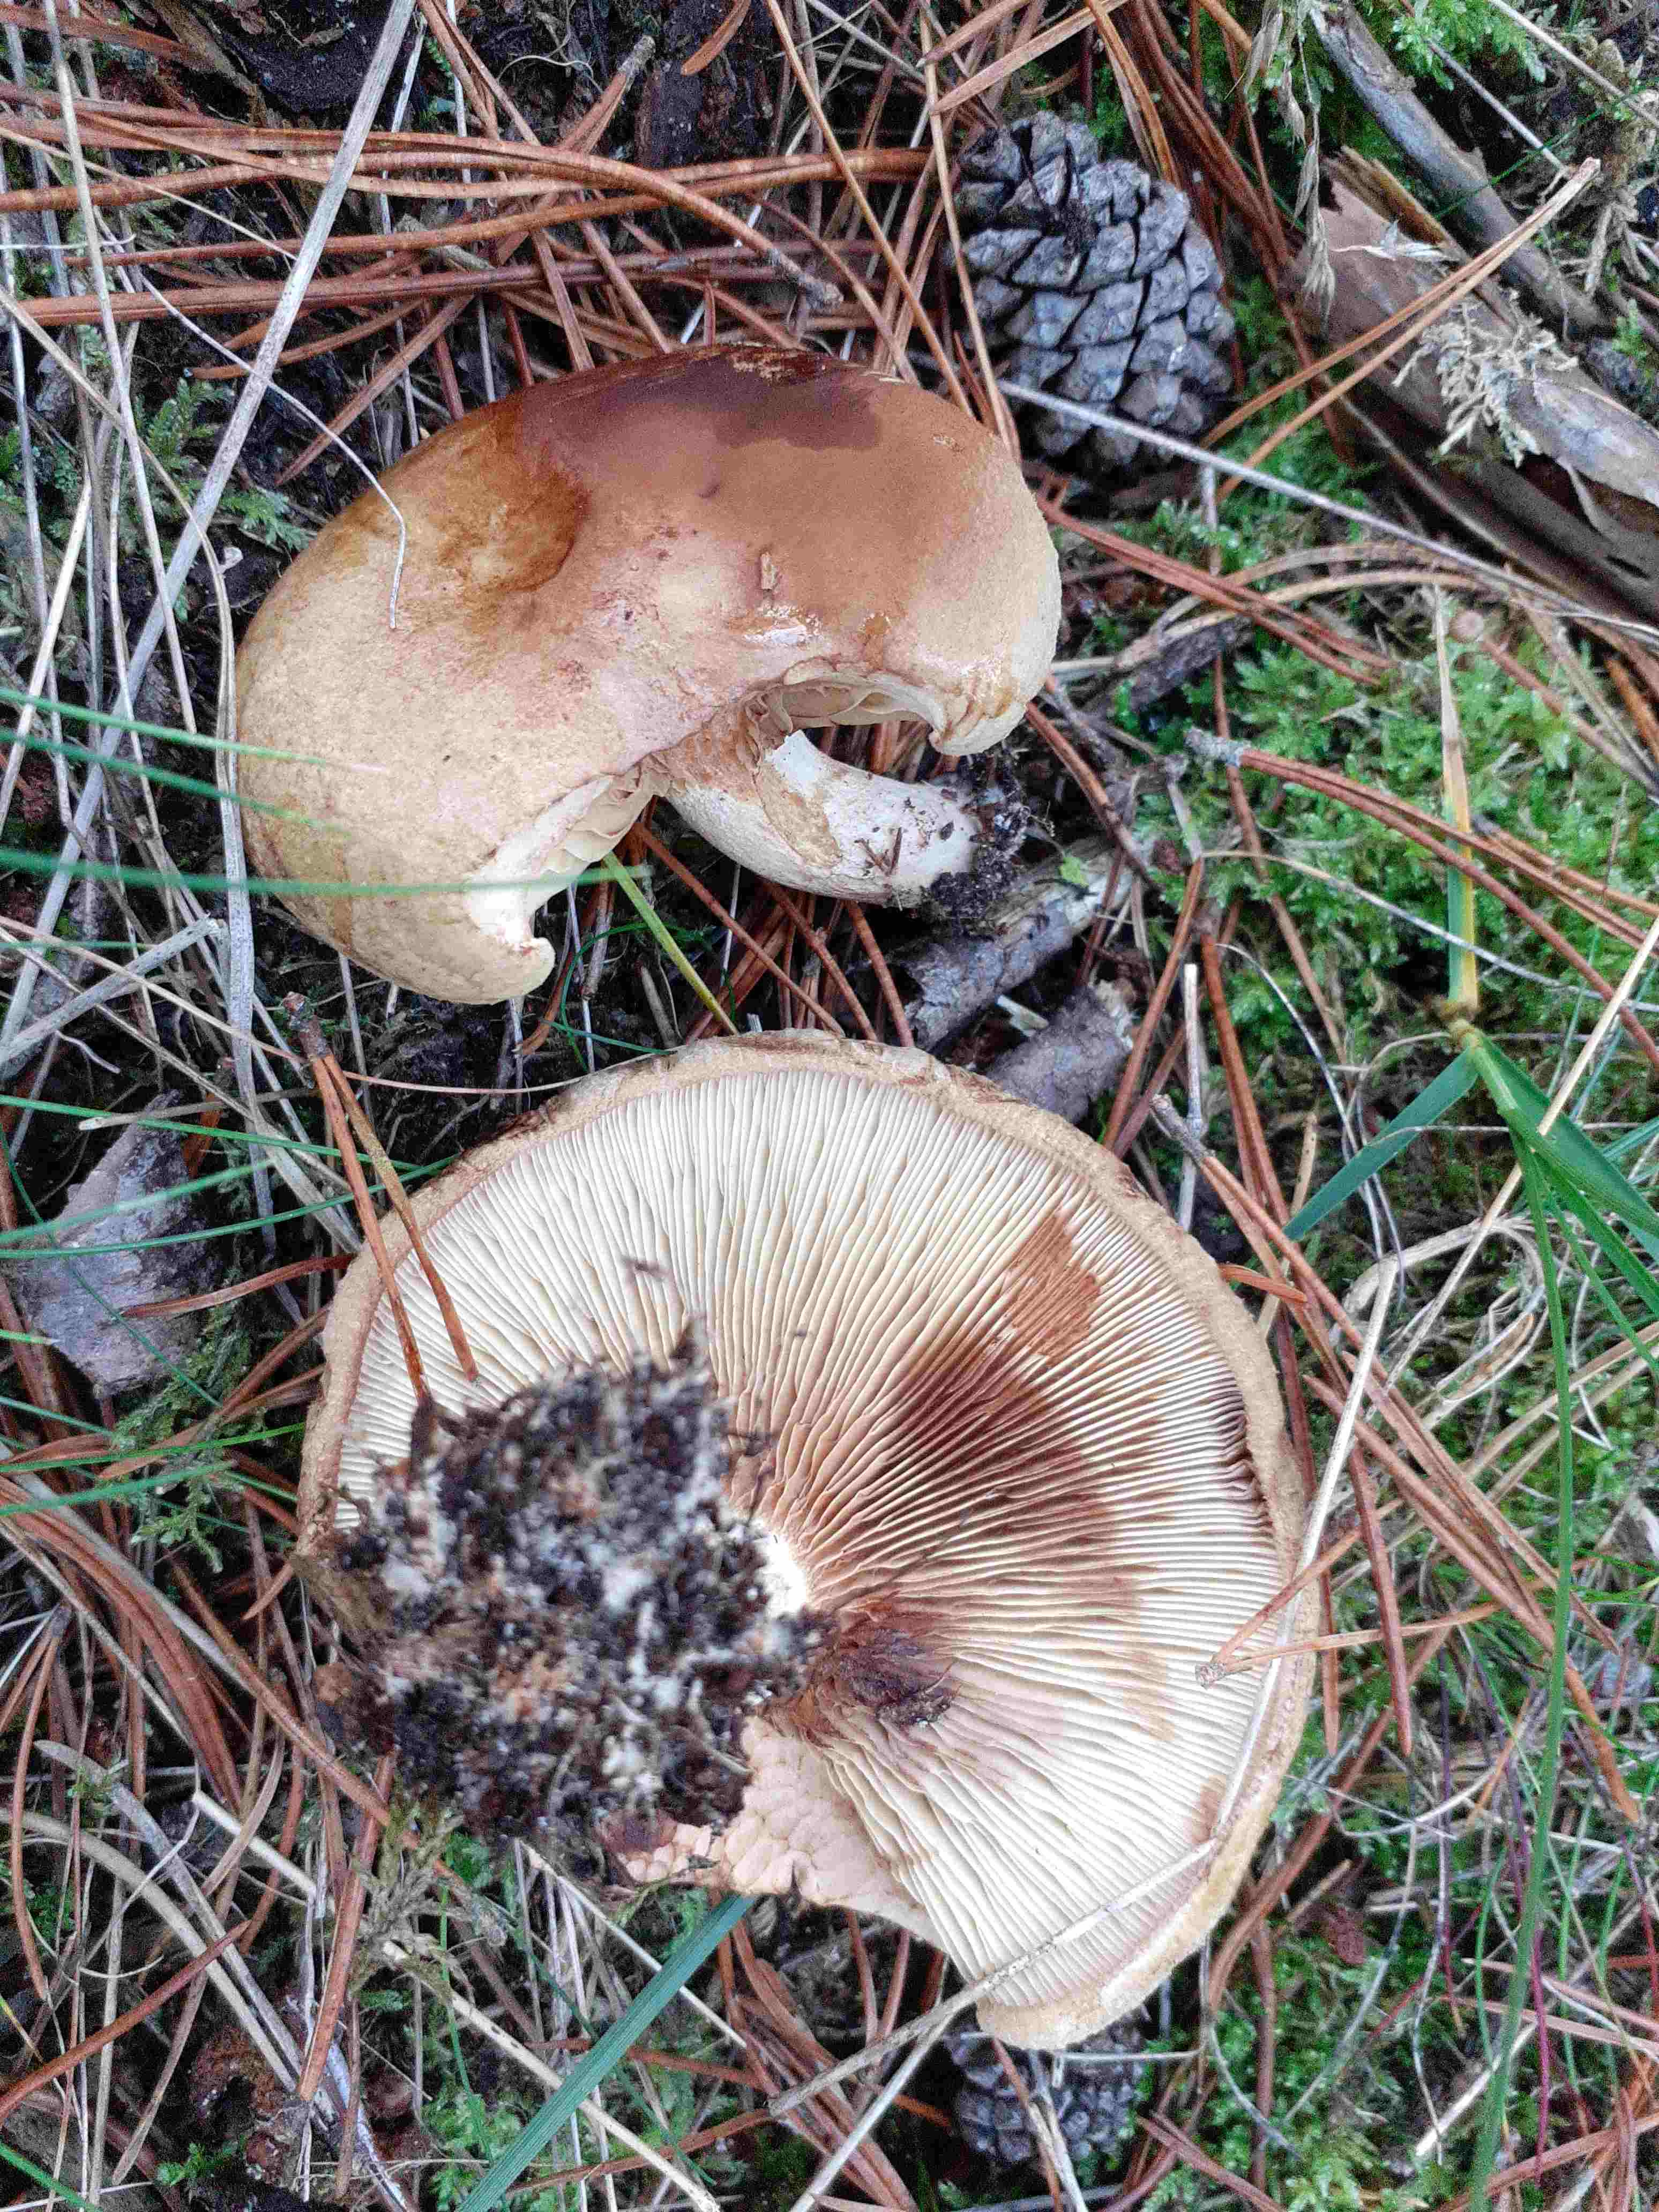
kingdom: Fungi
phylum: Basidiomycota
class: Agaricomycetes
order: Boletales
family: Paxillaceae
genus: Paxillus
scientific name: Paxillus involutus
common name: almindelig netbladhat
